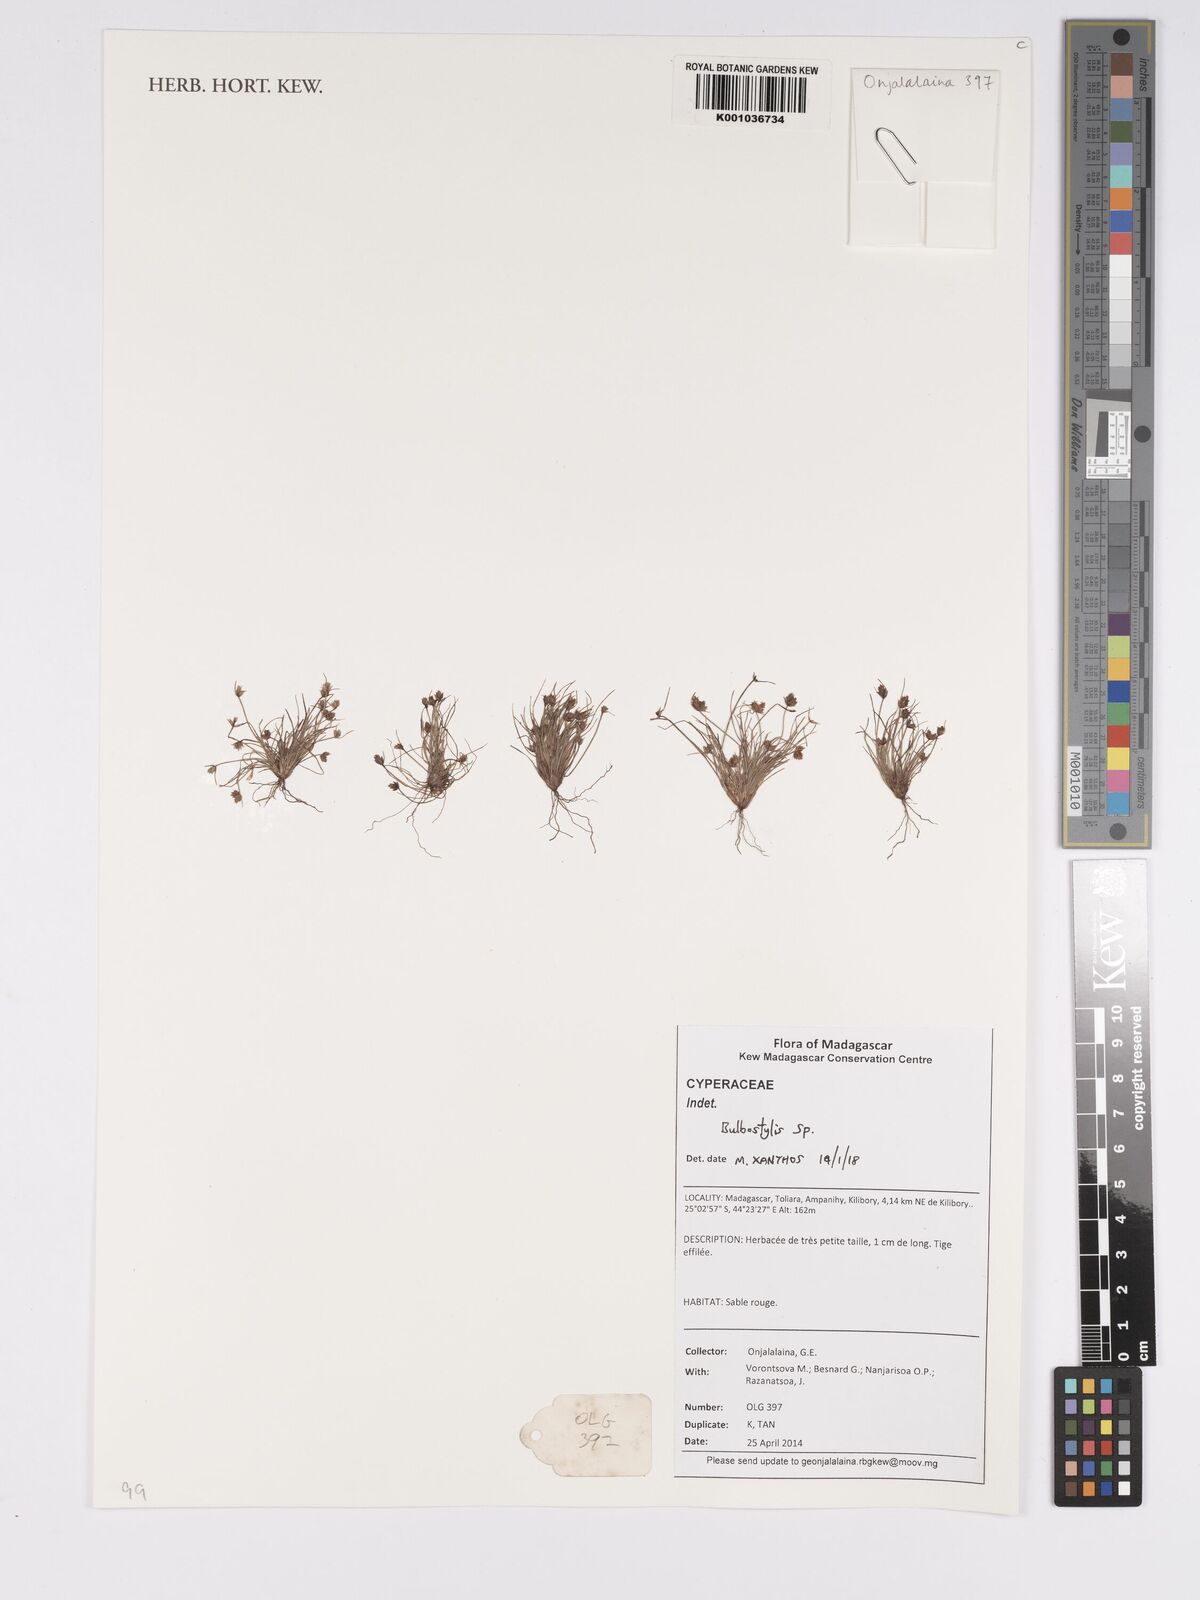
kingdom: Plantae
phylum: Tracheophyta
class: Liliopsida
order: Poales
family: Cyperaceae
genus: Bulbostylis
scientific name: Bulbostylis
